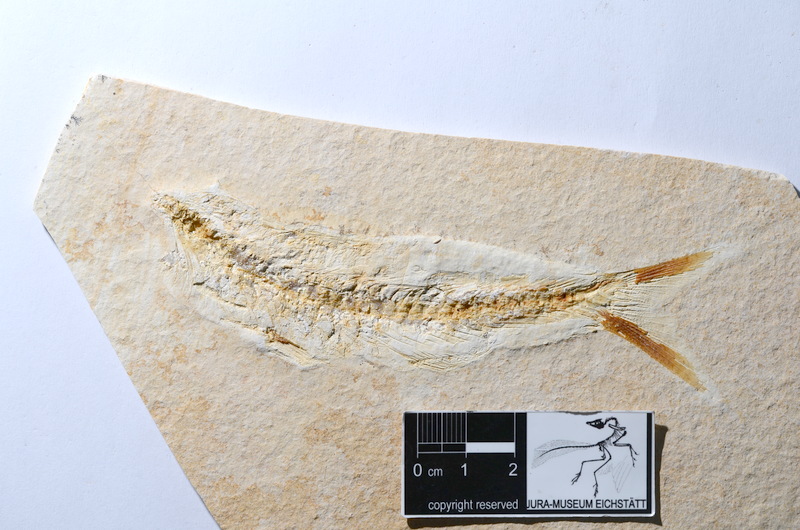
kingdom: Animalia
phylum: Chordata
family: Ascalaboidae
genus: Tharsis
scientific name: Tharsis dubius
